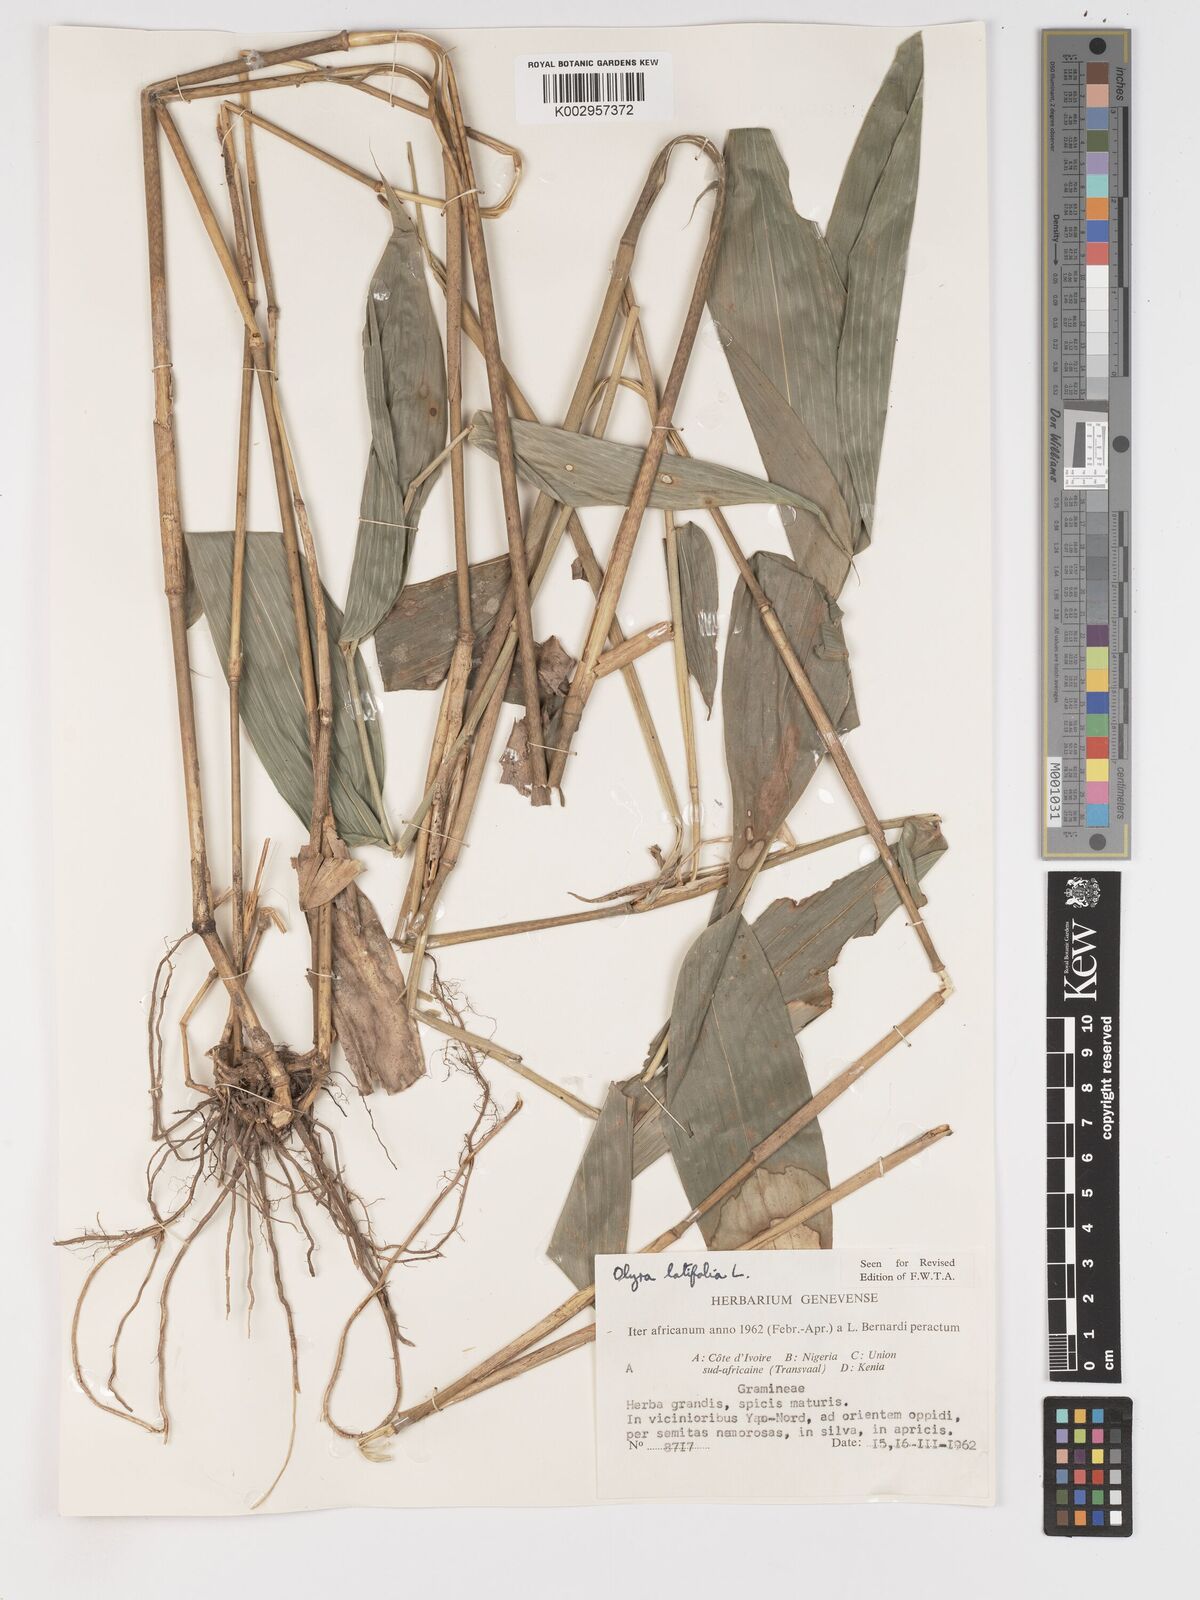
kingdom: Plantae
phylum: Tracheophyta
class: Liliopsida
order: Poales
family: Poaceae
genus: Olyra
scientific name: Olyra latifolia
